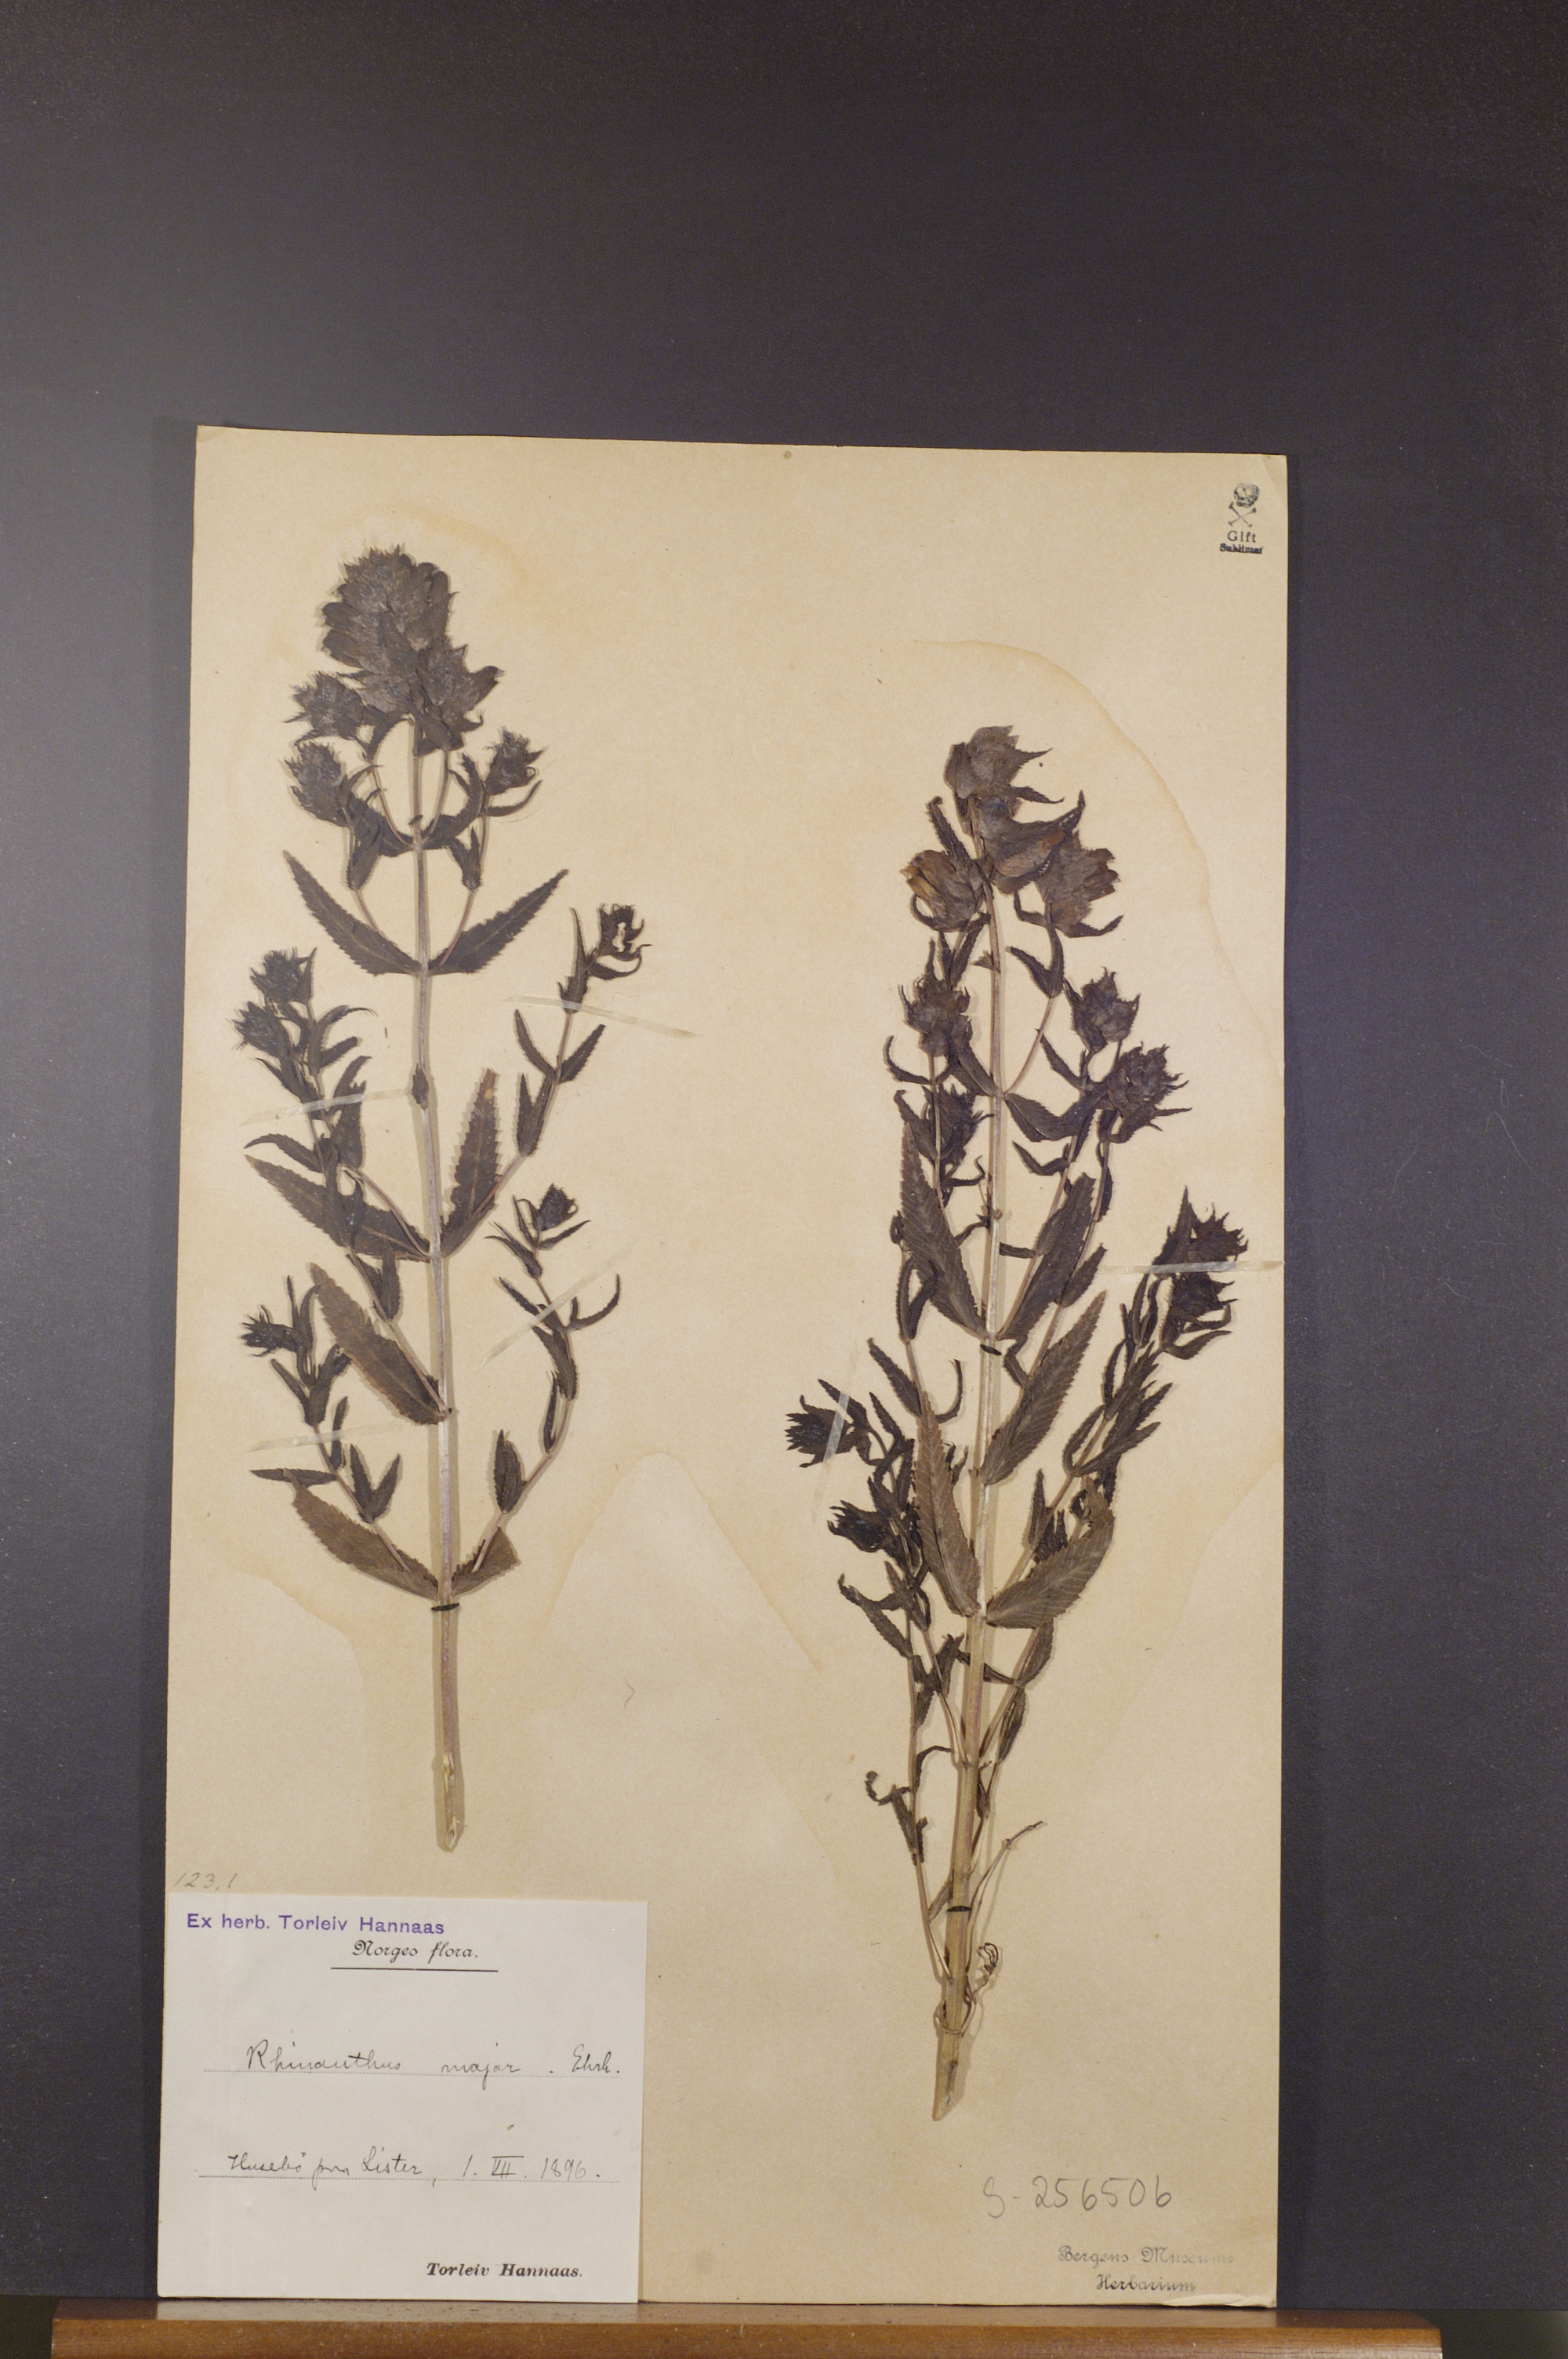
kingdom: Plantae
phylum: Tracheophyta
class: Magnoliopsida
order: Lamiales
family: Orobanchaceae
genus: Rhinanthus
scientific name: Rhinanthus serotinus
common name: Late-flowering yellow rattle
